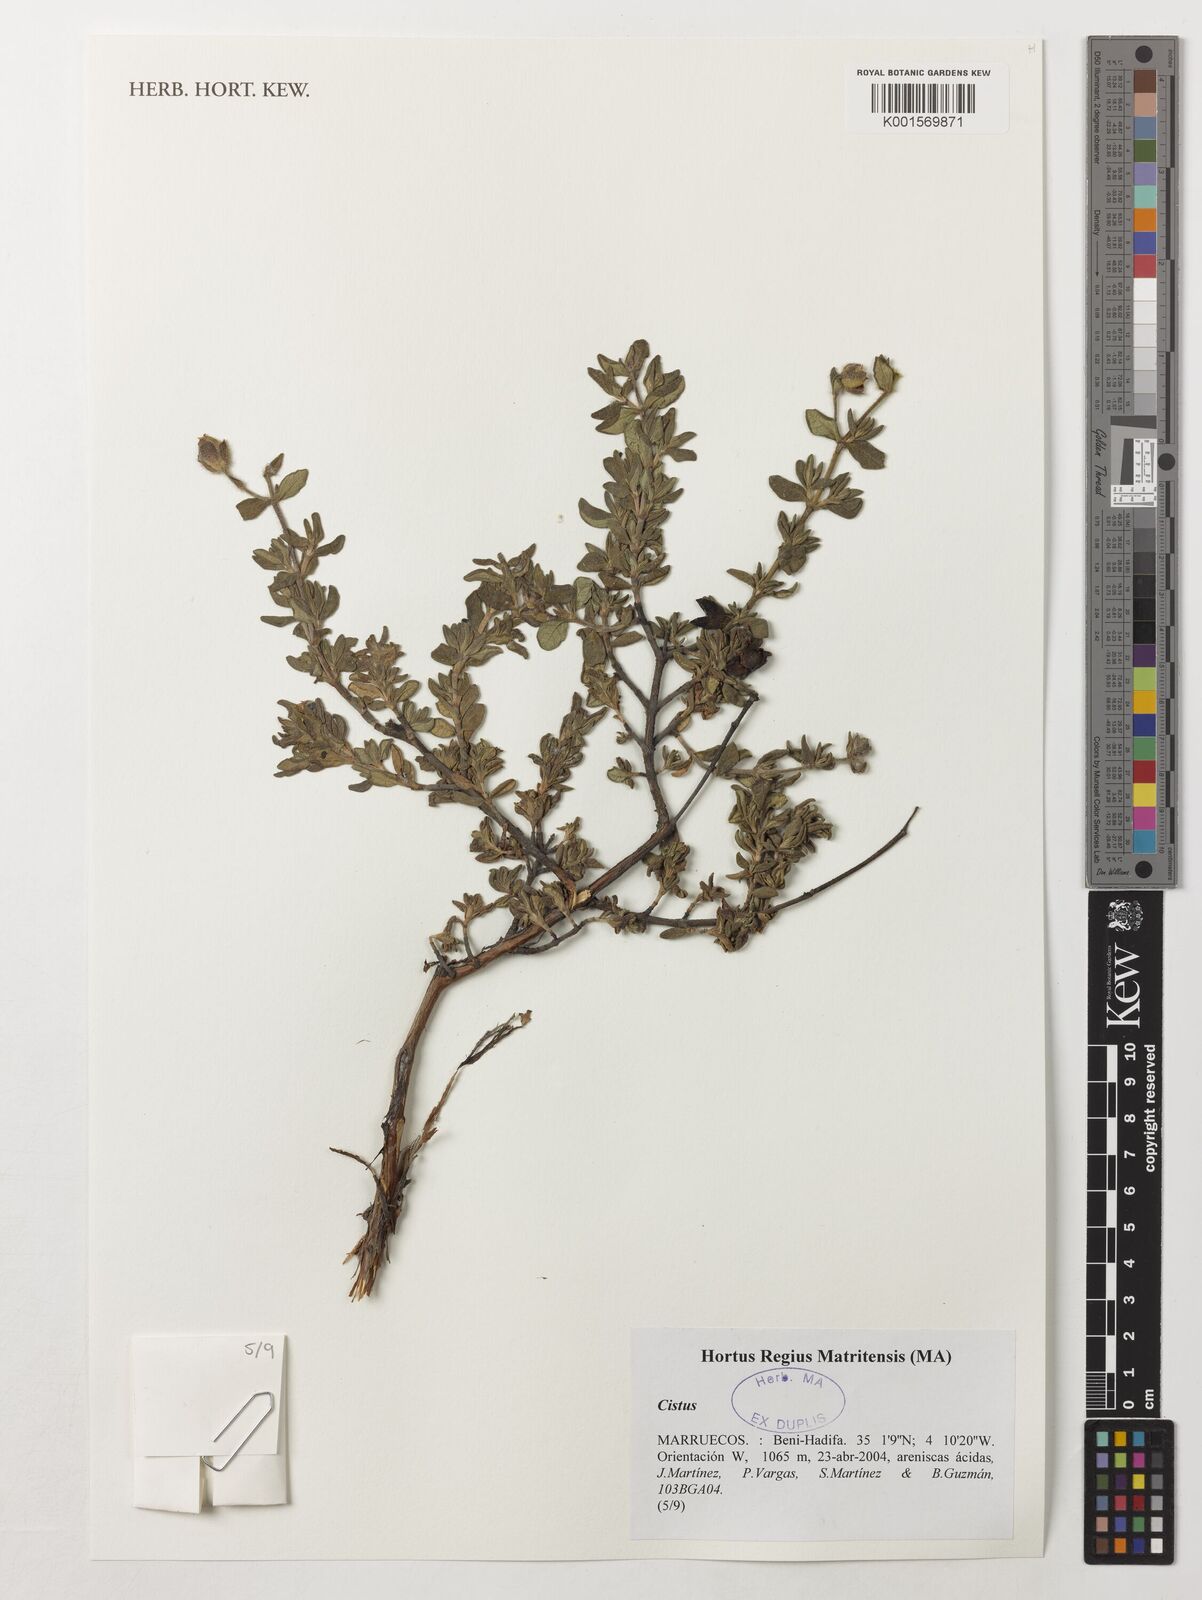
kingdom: Plantae
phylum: Tracheophyta
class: Magnoliopsida
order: Malvales
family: Cistaceae
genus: Cistus
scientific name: Cistus
